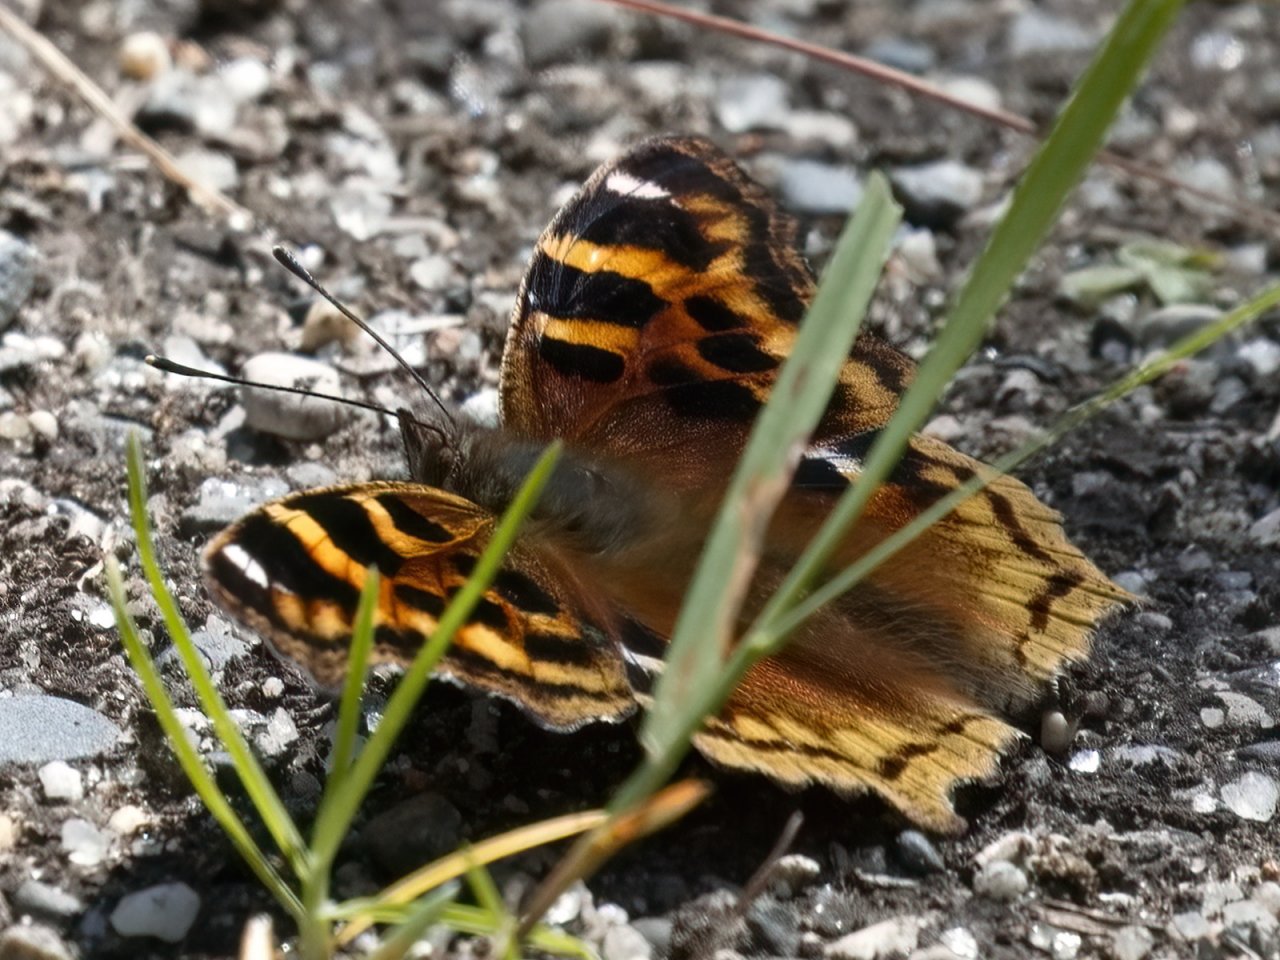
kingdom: Animalia
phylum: Arthropoda
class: Insecta
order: Lepidoptera
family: Nymphalidae
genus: Polygonia
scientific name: Polygonia vaualbum
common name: Compton Tortoiseshell
